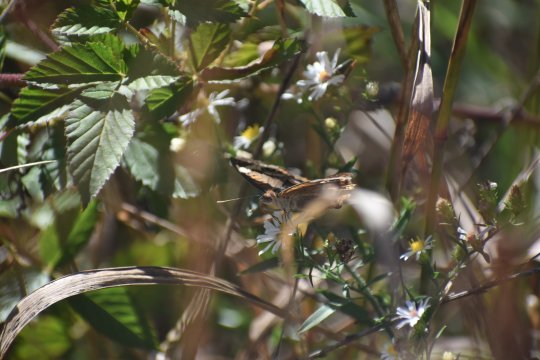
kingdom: Animalia
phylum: Arthropoda
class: Insecta
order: Lepidoptera
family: Nymphalidae
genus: Junonia
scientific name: Junonia coenia
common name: Common Buckeye
